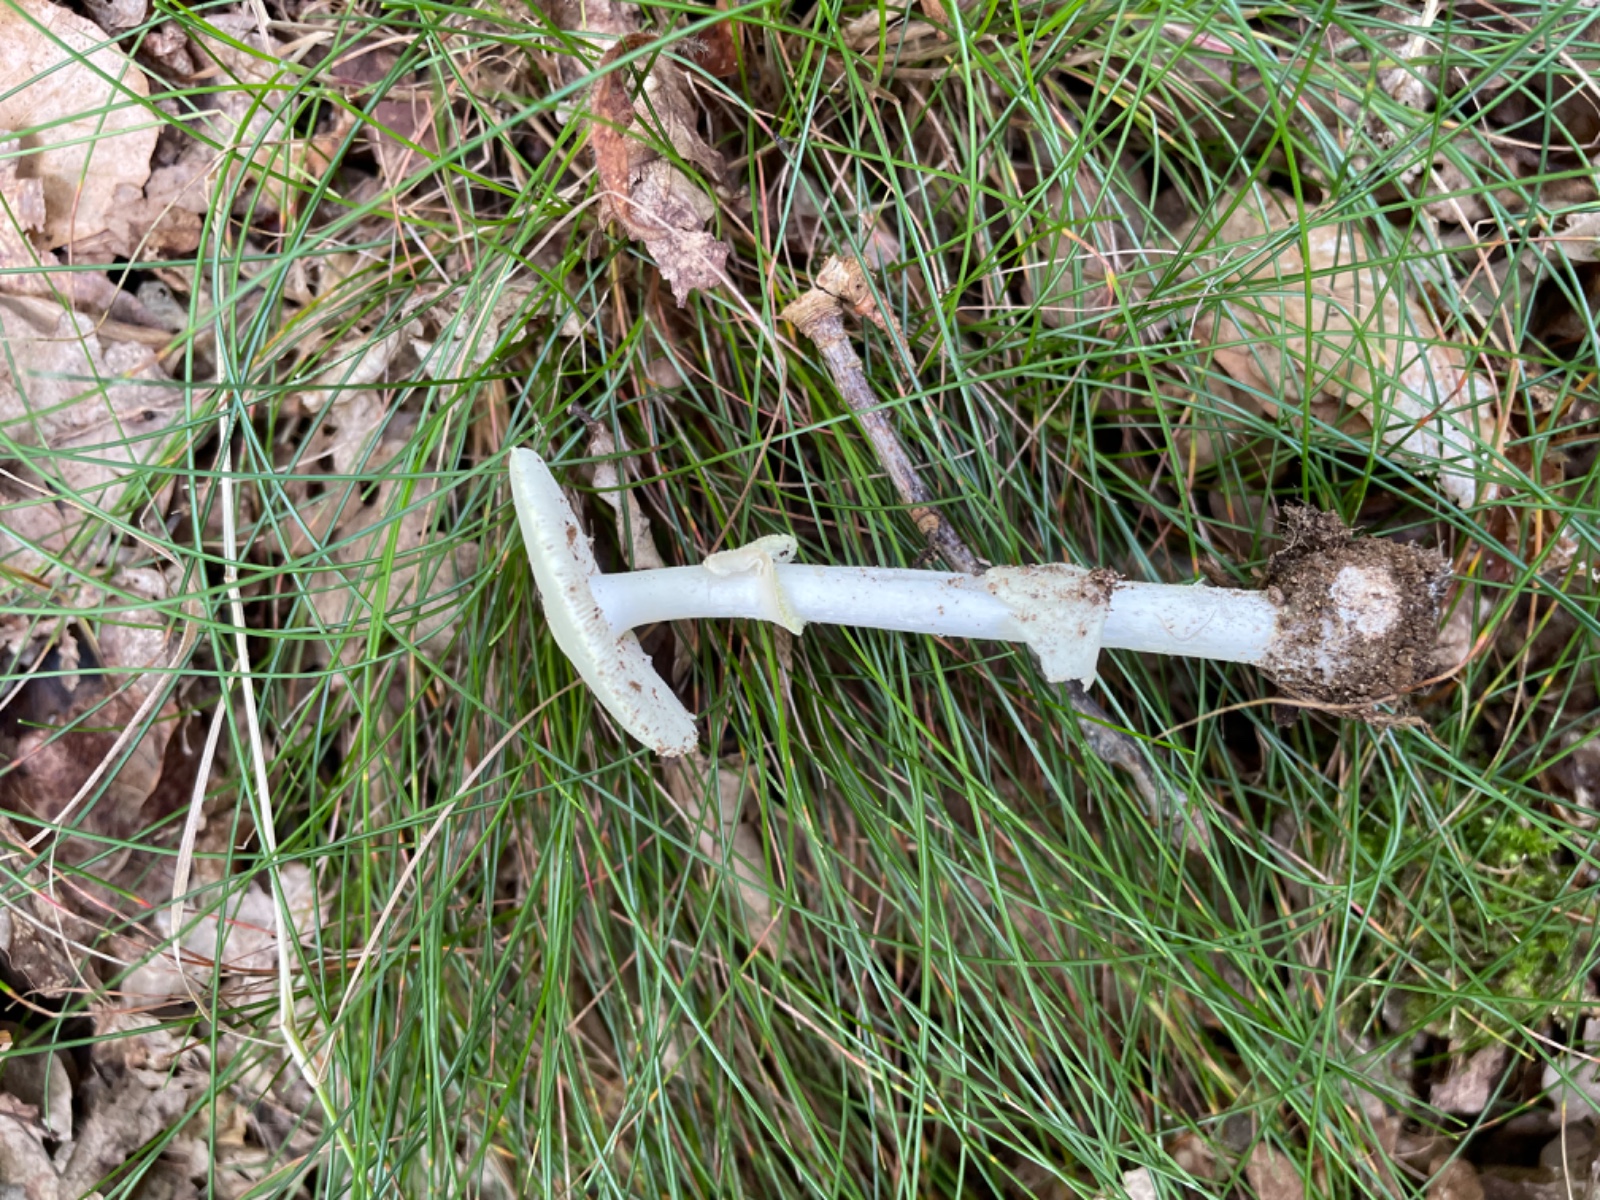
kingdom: Fungi
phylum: Basidiomycota
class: Agaricomycetes
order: Agaricales
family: Amanitaceae
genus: Amanita
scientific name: Amanita citrina
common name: kugleknoldet fluesvamp
